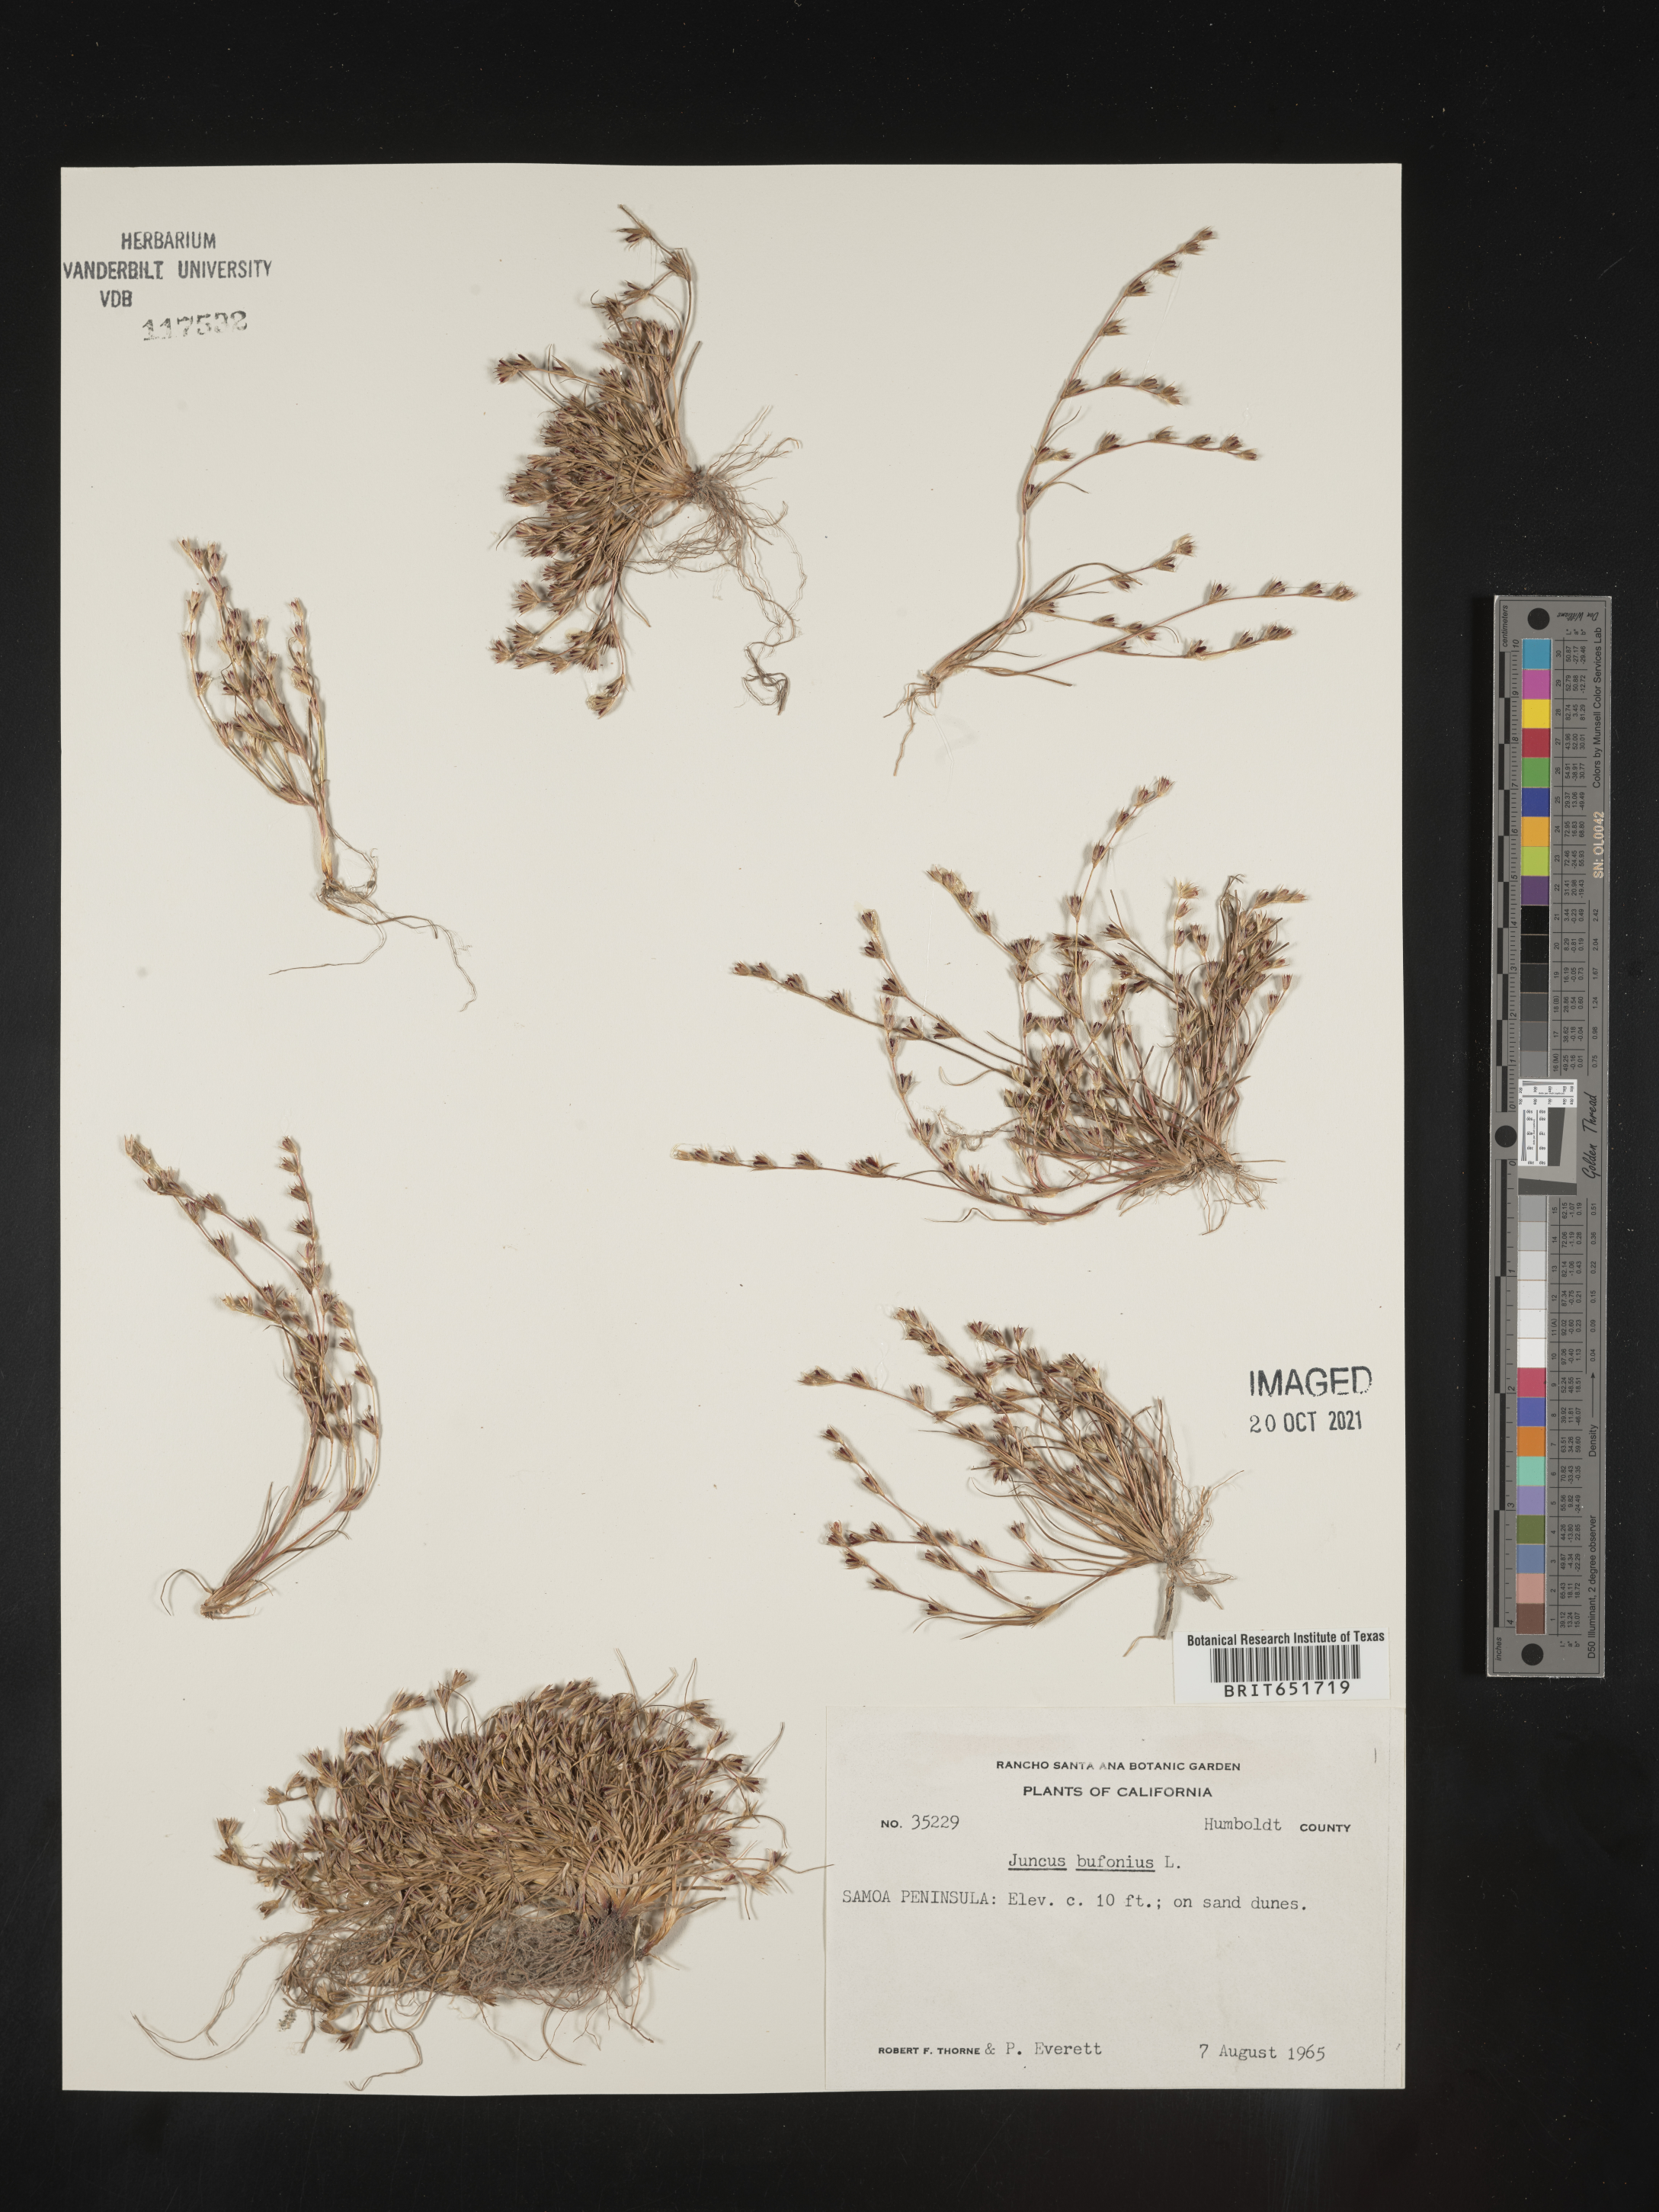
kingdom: Plantae
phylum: Tracheophyta
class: Liliopsida
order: Poales
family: Juncaceae
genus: Juncus
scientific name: Juncus bufonius
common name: Toad rush
